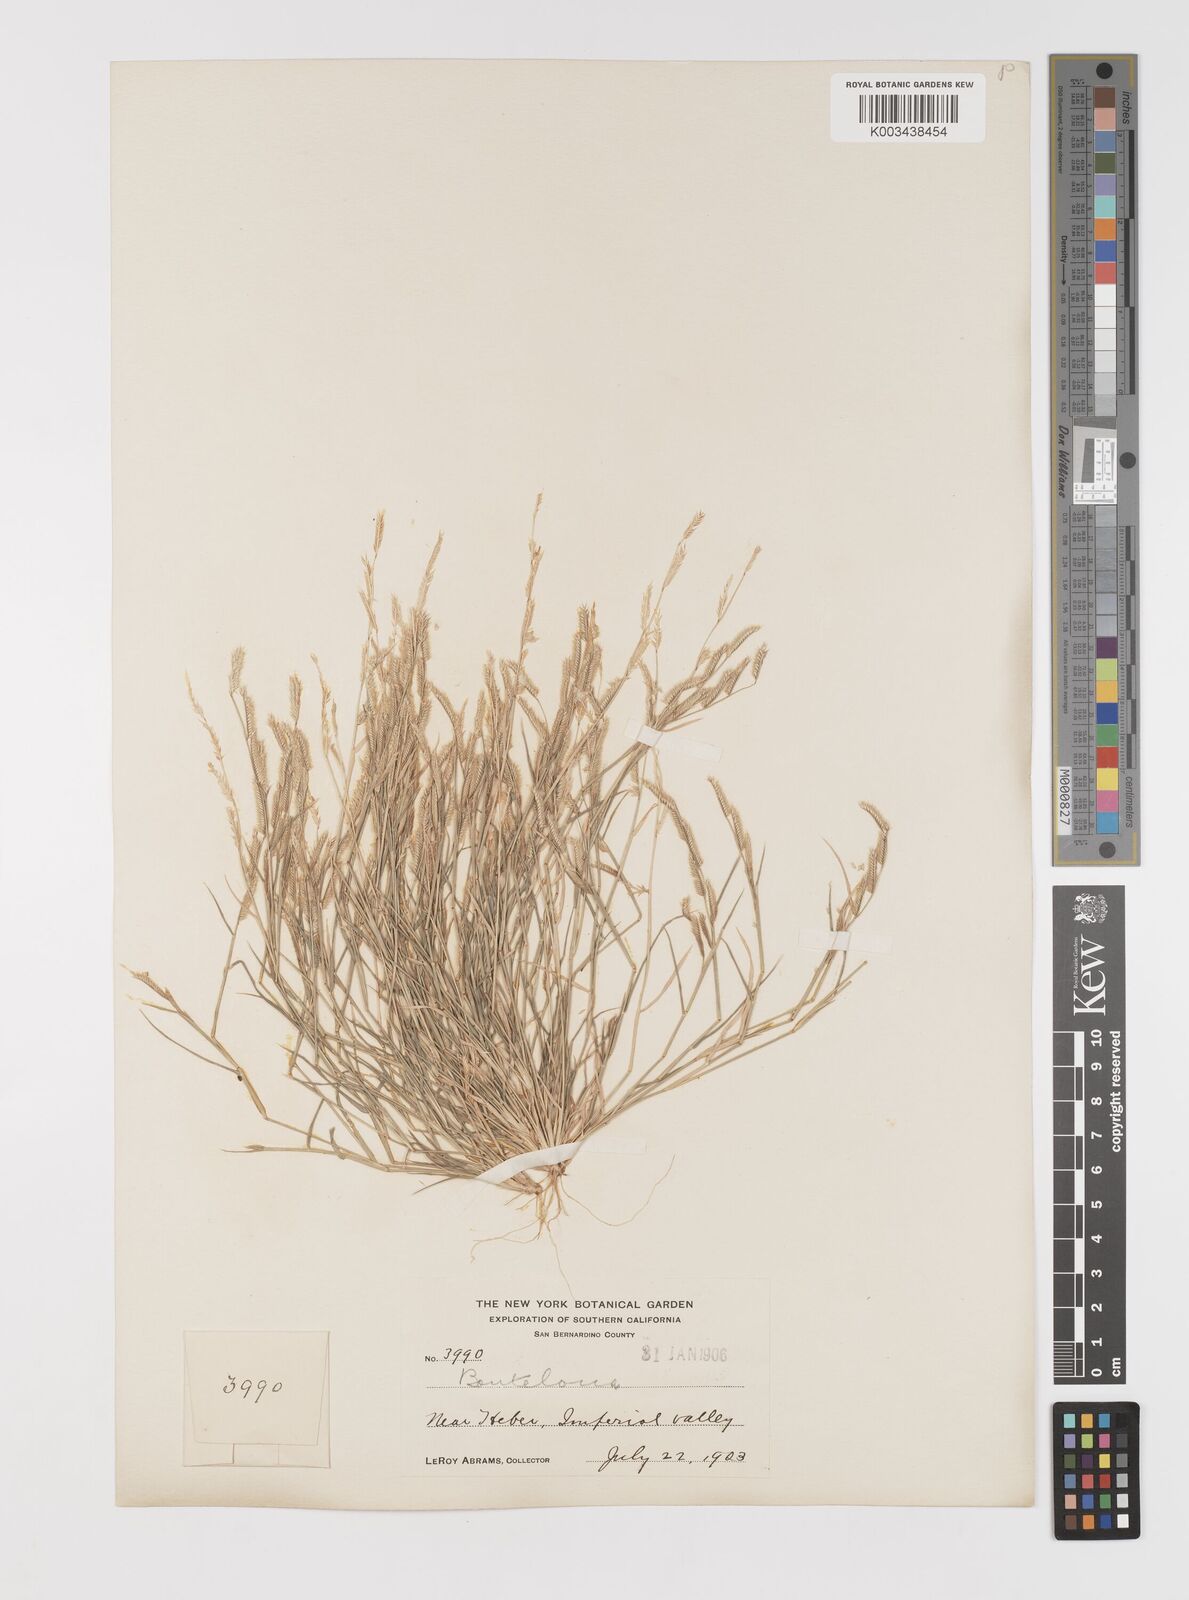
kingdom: Plantae
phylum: Tracheophyta
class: Liliopsida
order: Poales
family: Poaceae
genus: Bouteloua
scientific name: Bouteloua
